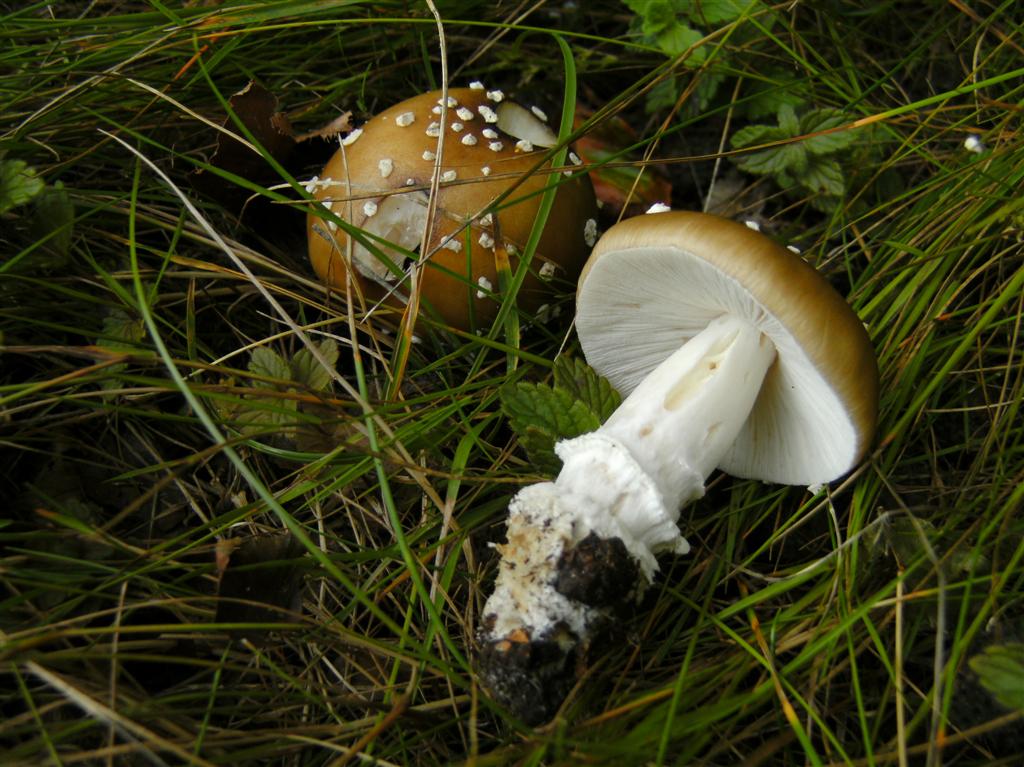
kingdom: Fungi
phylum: Basidiomycota
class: Agaricomycetes
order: Agaricales
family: Amanitaceae
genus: Amanita
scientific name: Amanita pantherina
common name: panter-fluesvamp
